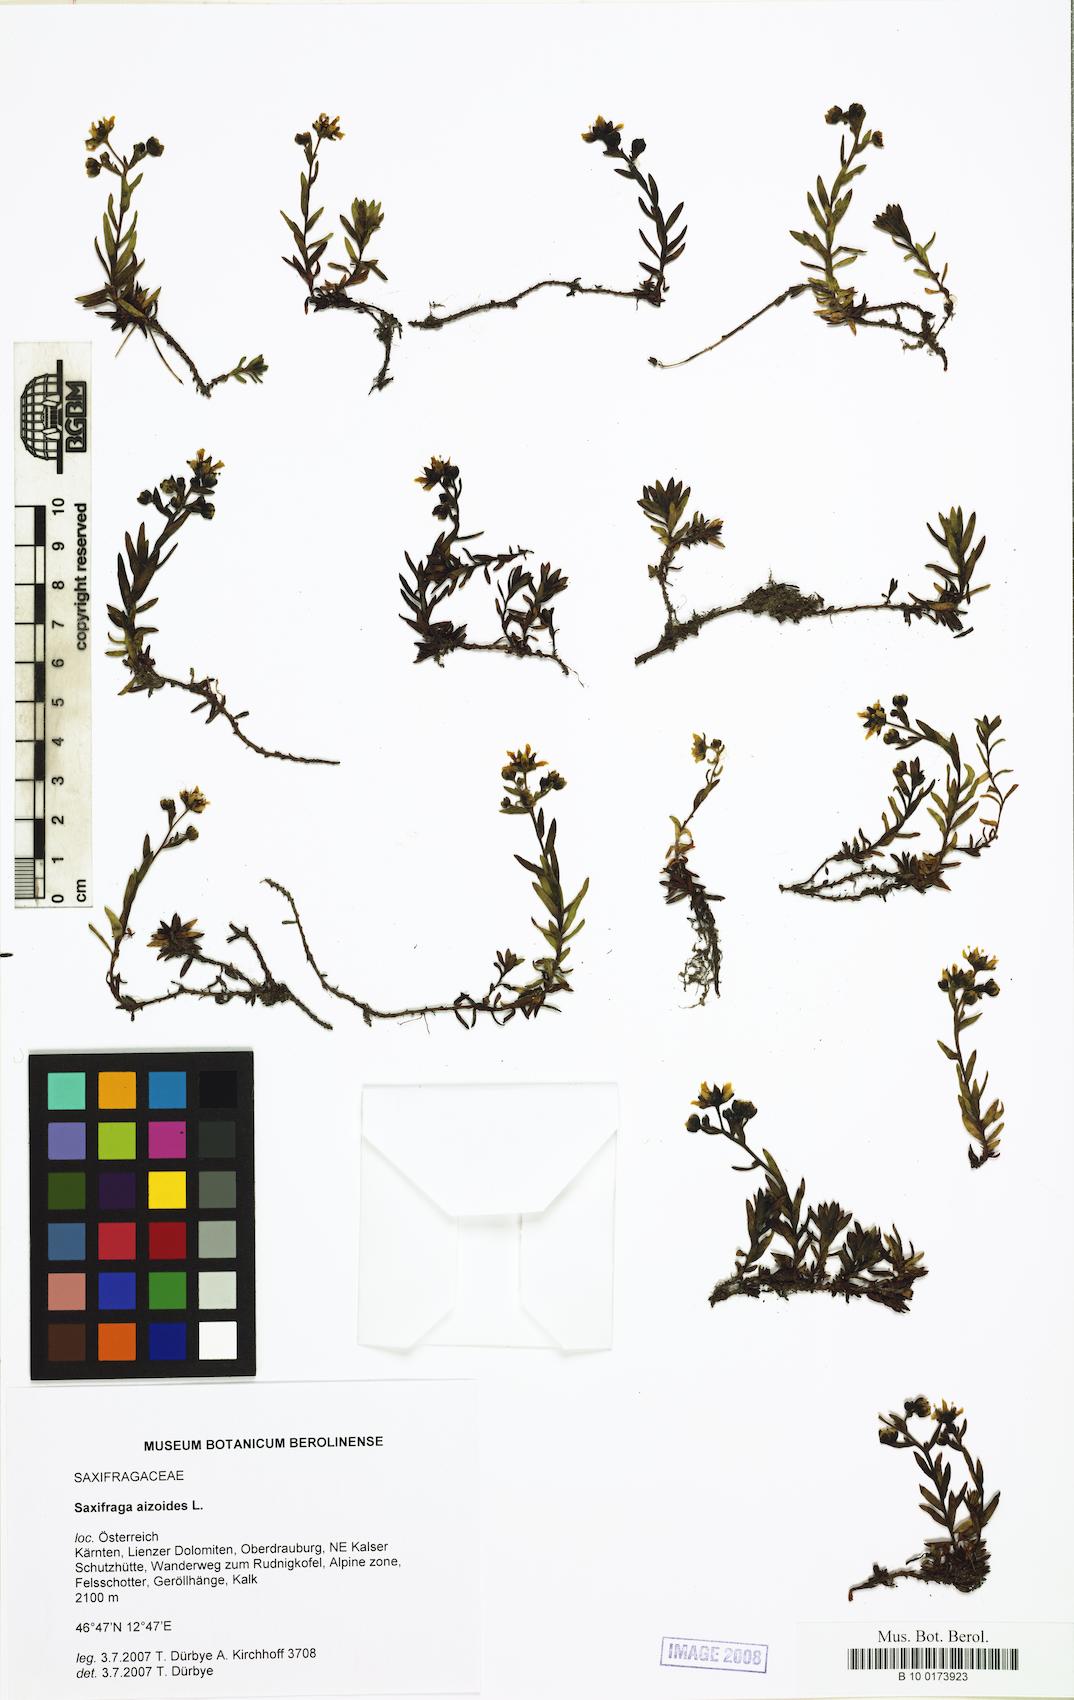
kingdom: Plantae
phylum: Tracheophyta
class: Magnoliopsida
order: Saxifragales
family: Saxifragaceae
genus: Saxifraga
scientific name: Saxifraga aizoides
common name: Yellow mountain saxifrage
